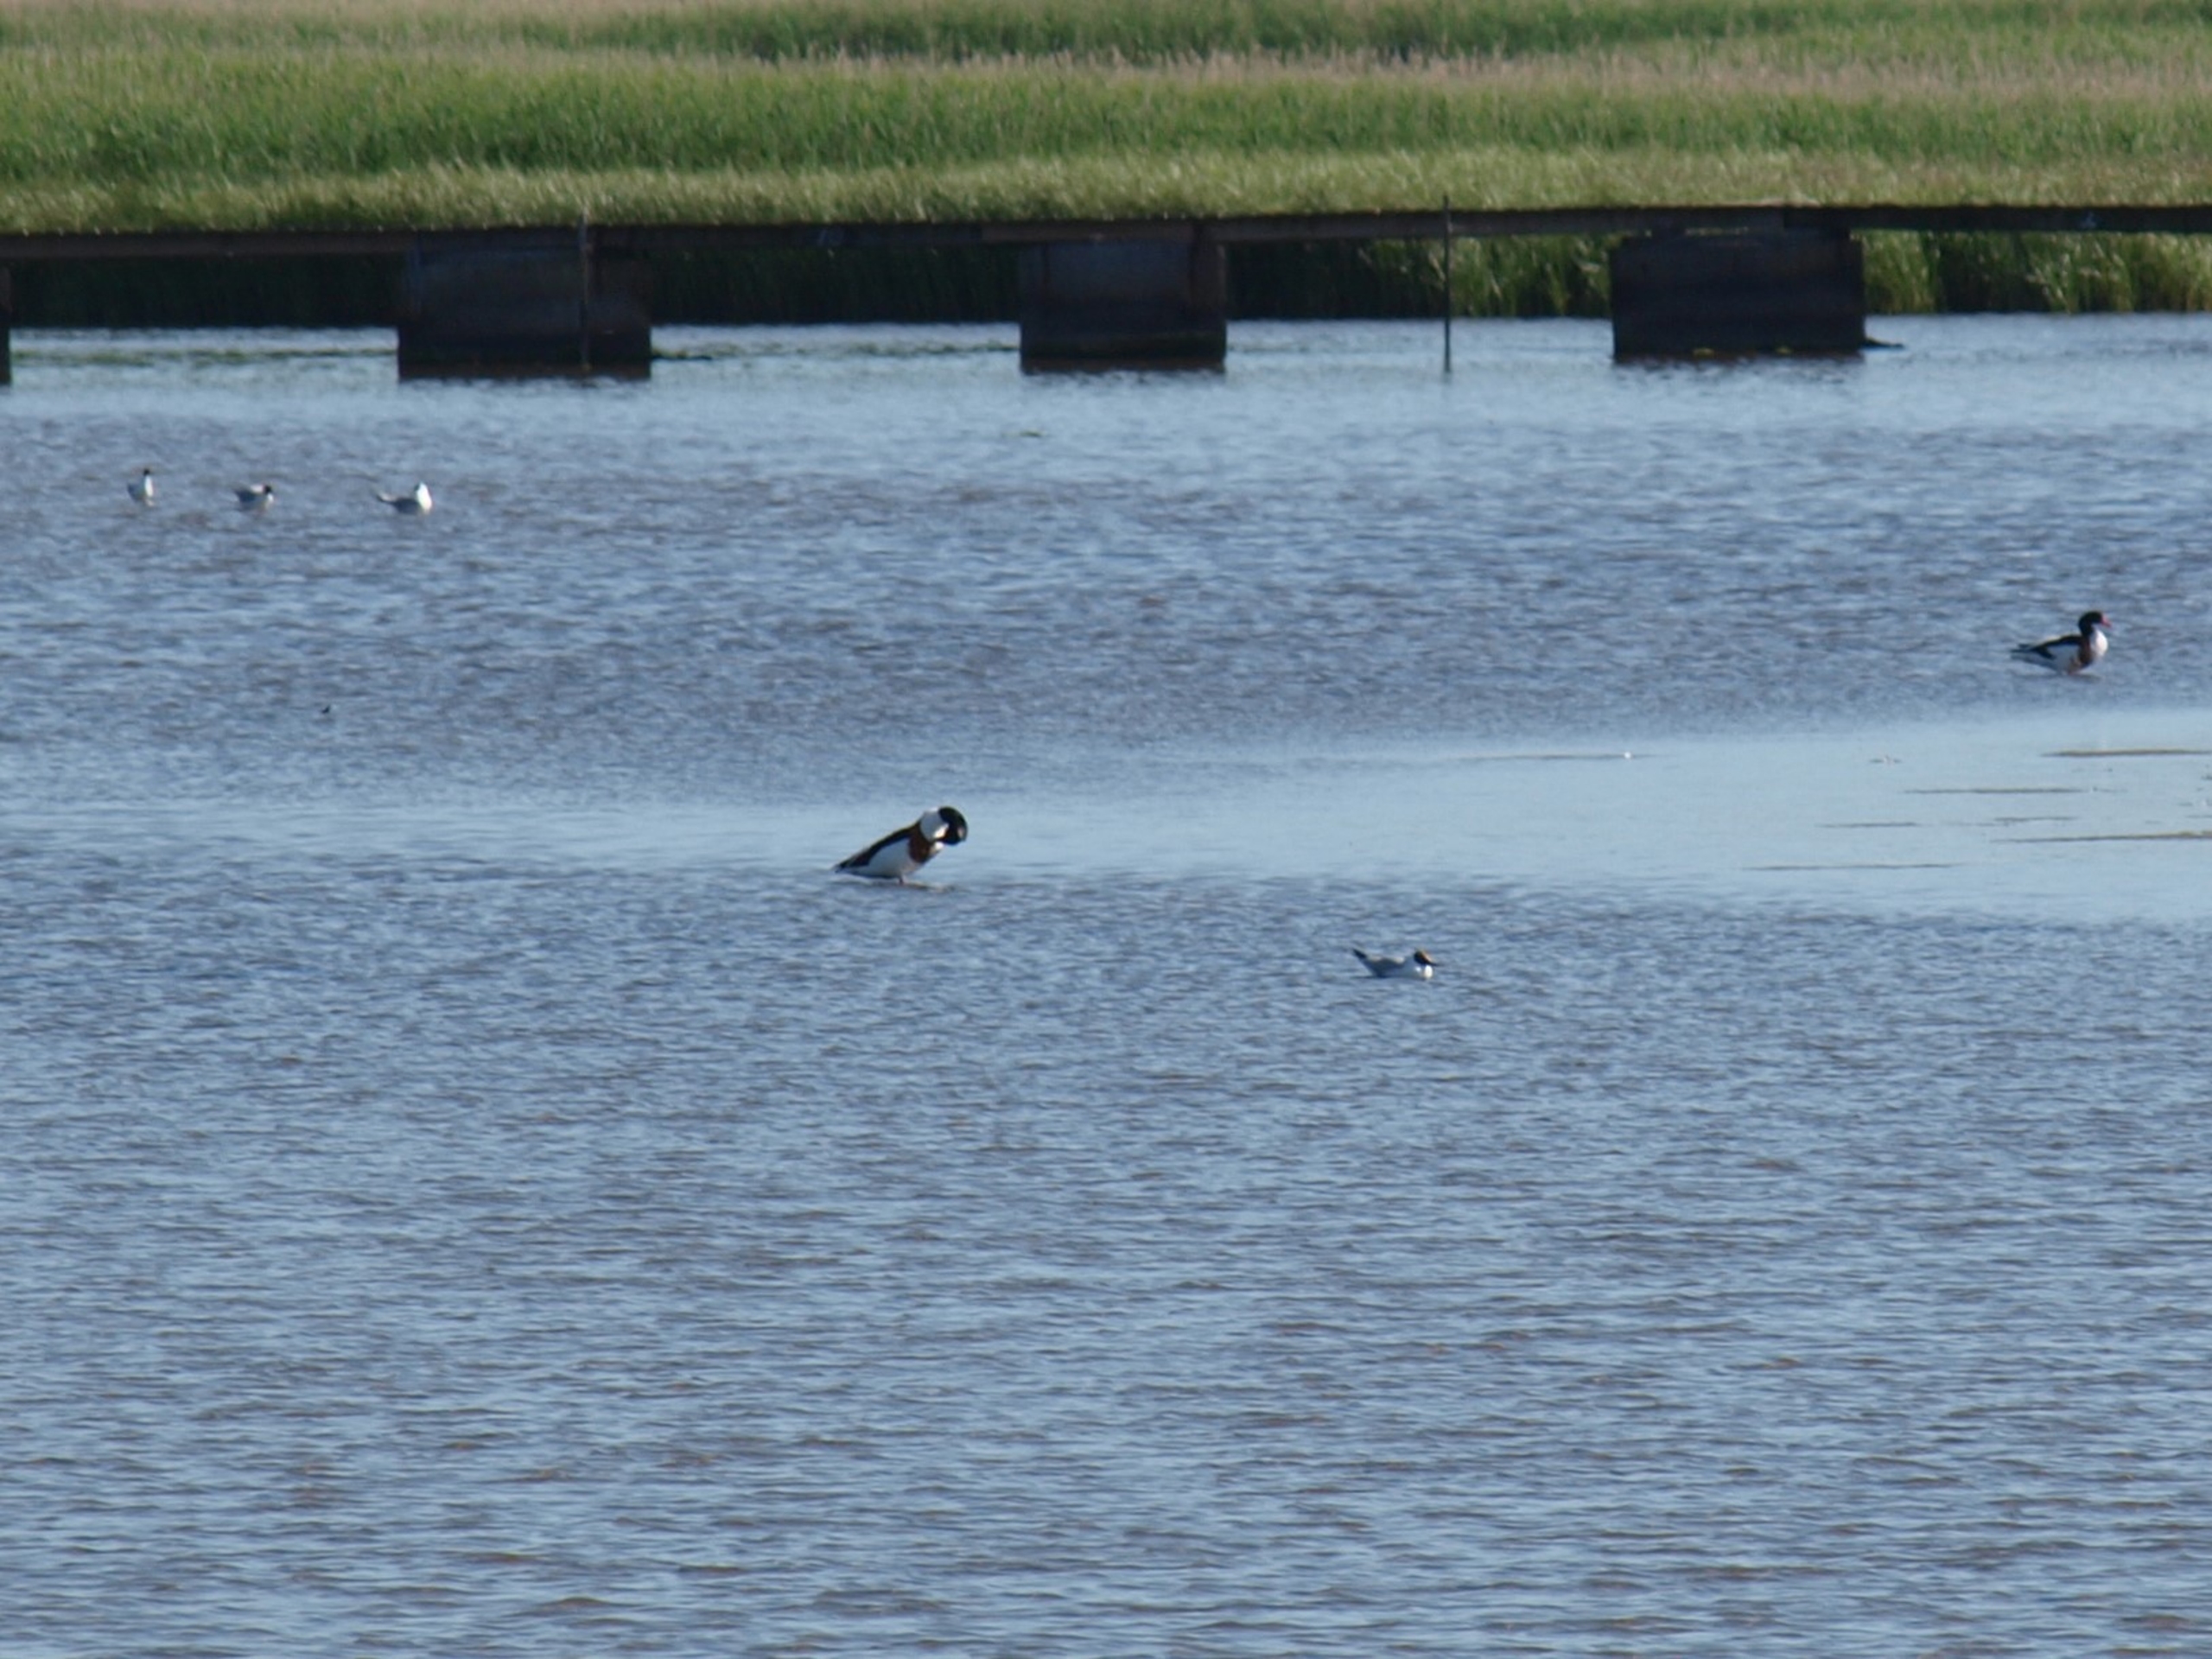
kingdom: Animalia
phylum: Chordata
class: Aves
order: Anseriformes
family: Anatidae
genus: Tadorna
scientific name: Tadorna tadorna
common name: Gravand
